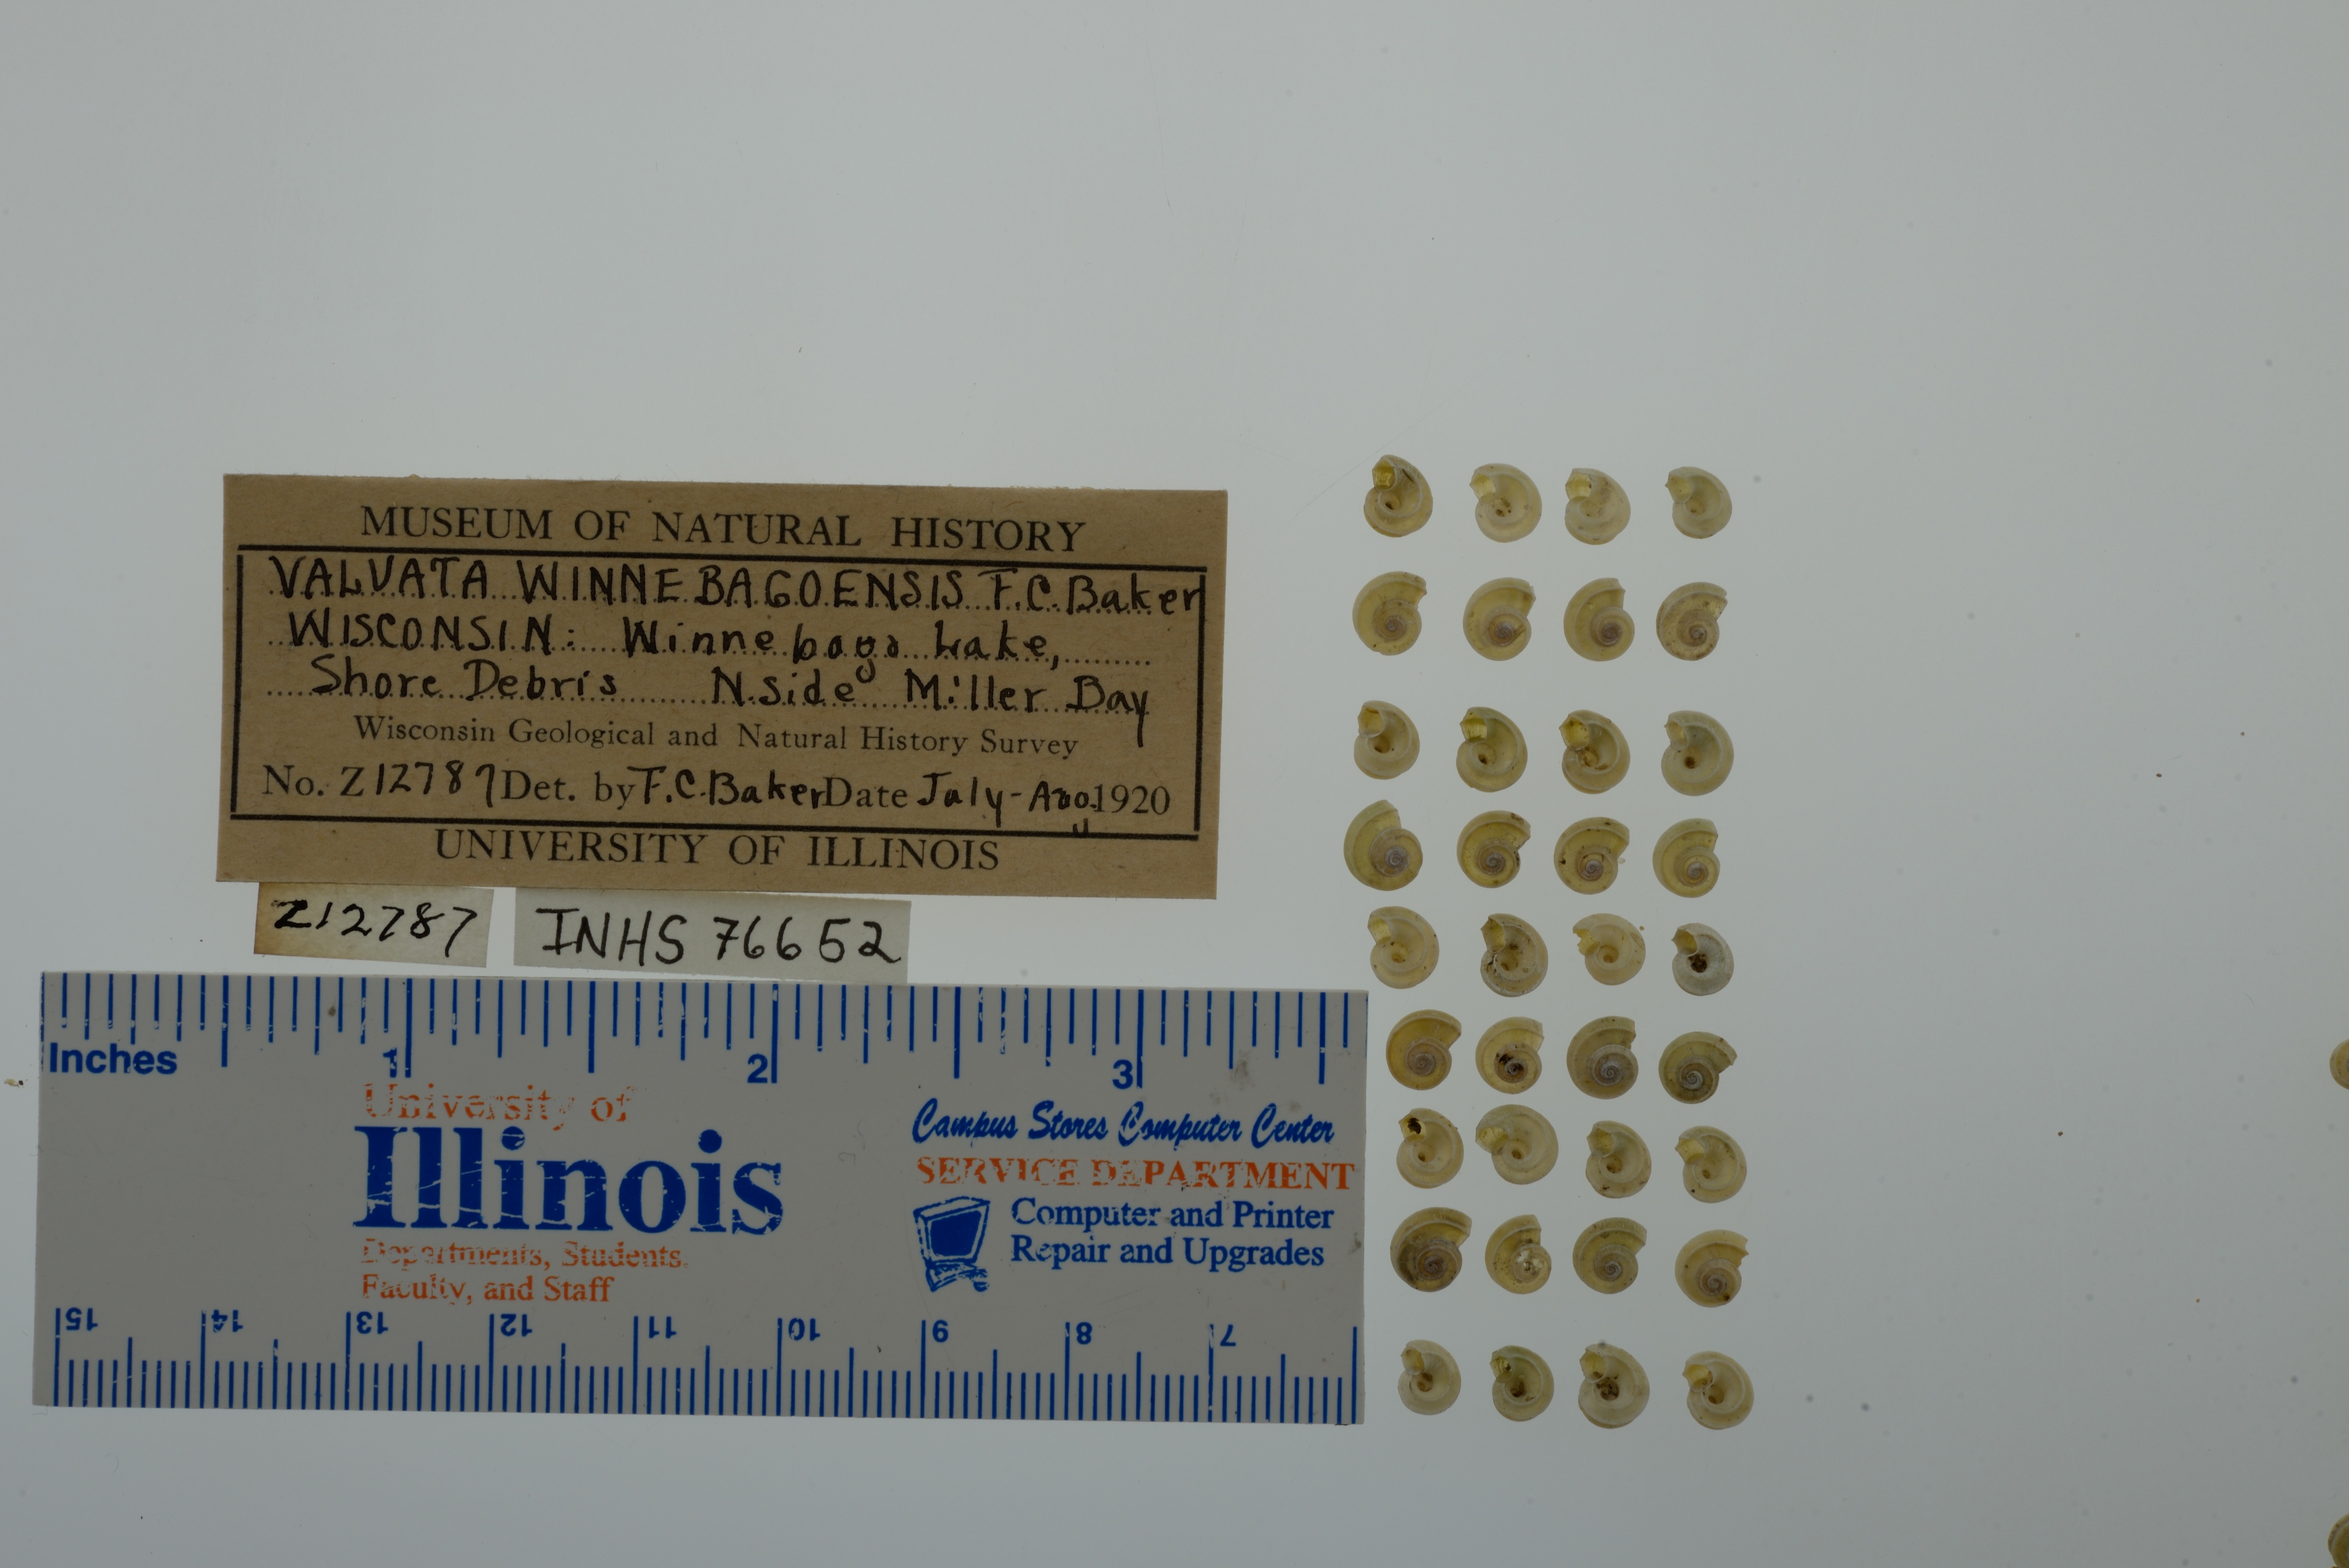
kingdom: Animalia
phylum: Mollusca
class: Gastropoda
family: Valvatidae
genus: Valvata
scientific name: Valvata winnebagoensis
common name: Flanged valvata
